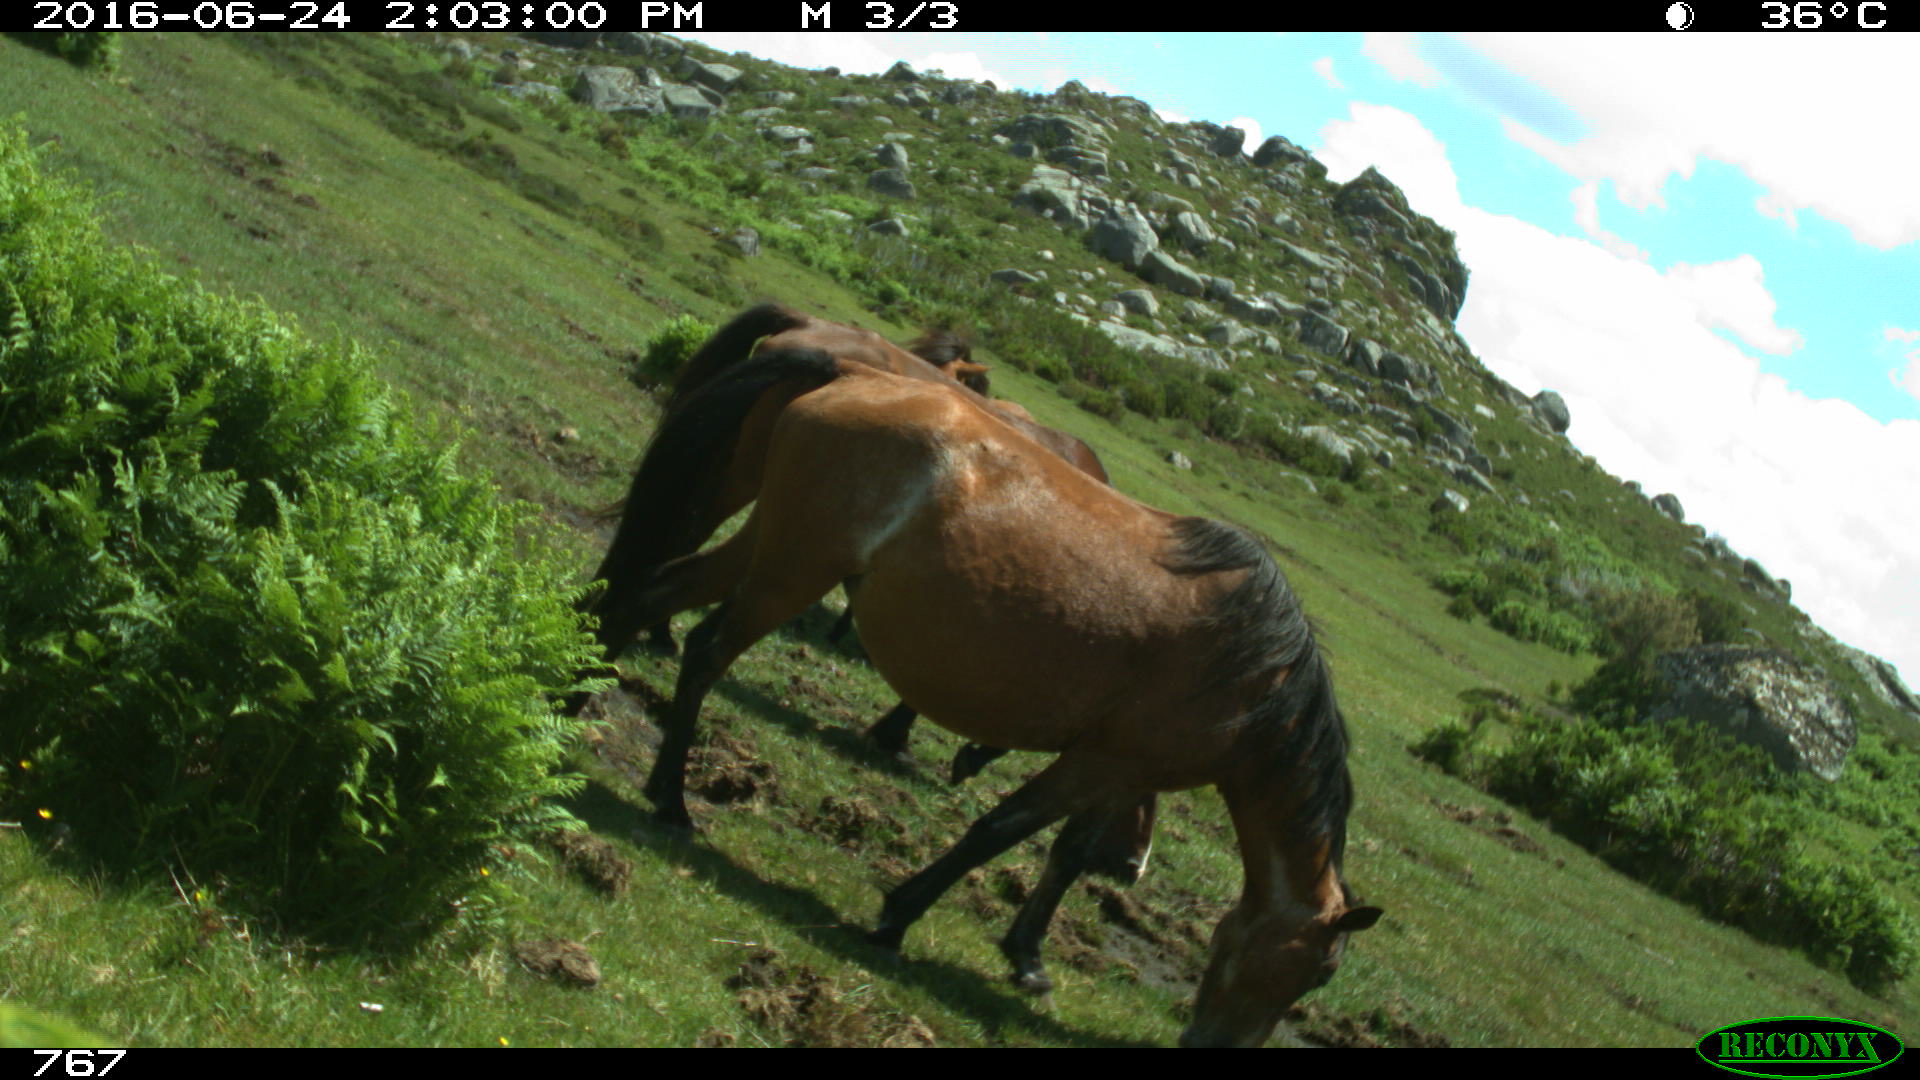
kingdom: Animalia
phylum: Chordata
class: Mammalia
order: Perissodactyla
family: Equidae
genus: Equus
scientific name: Equus caballus
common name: Horse
